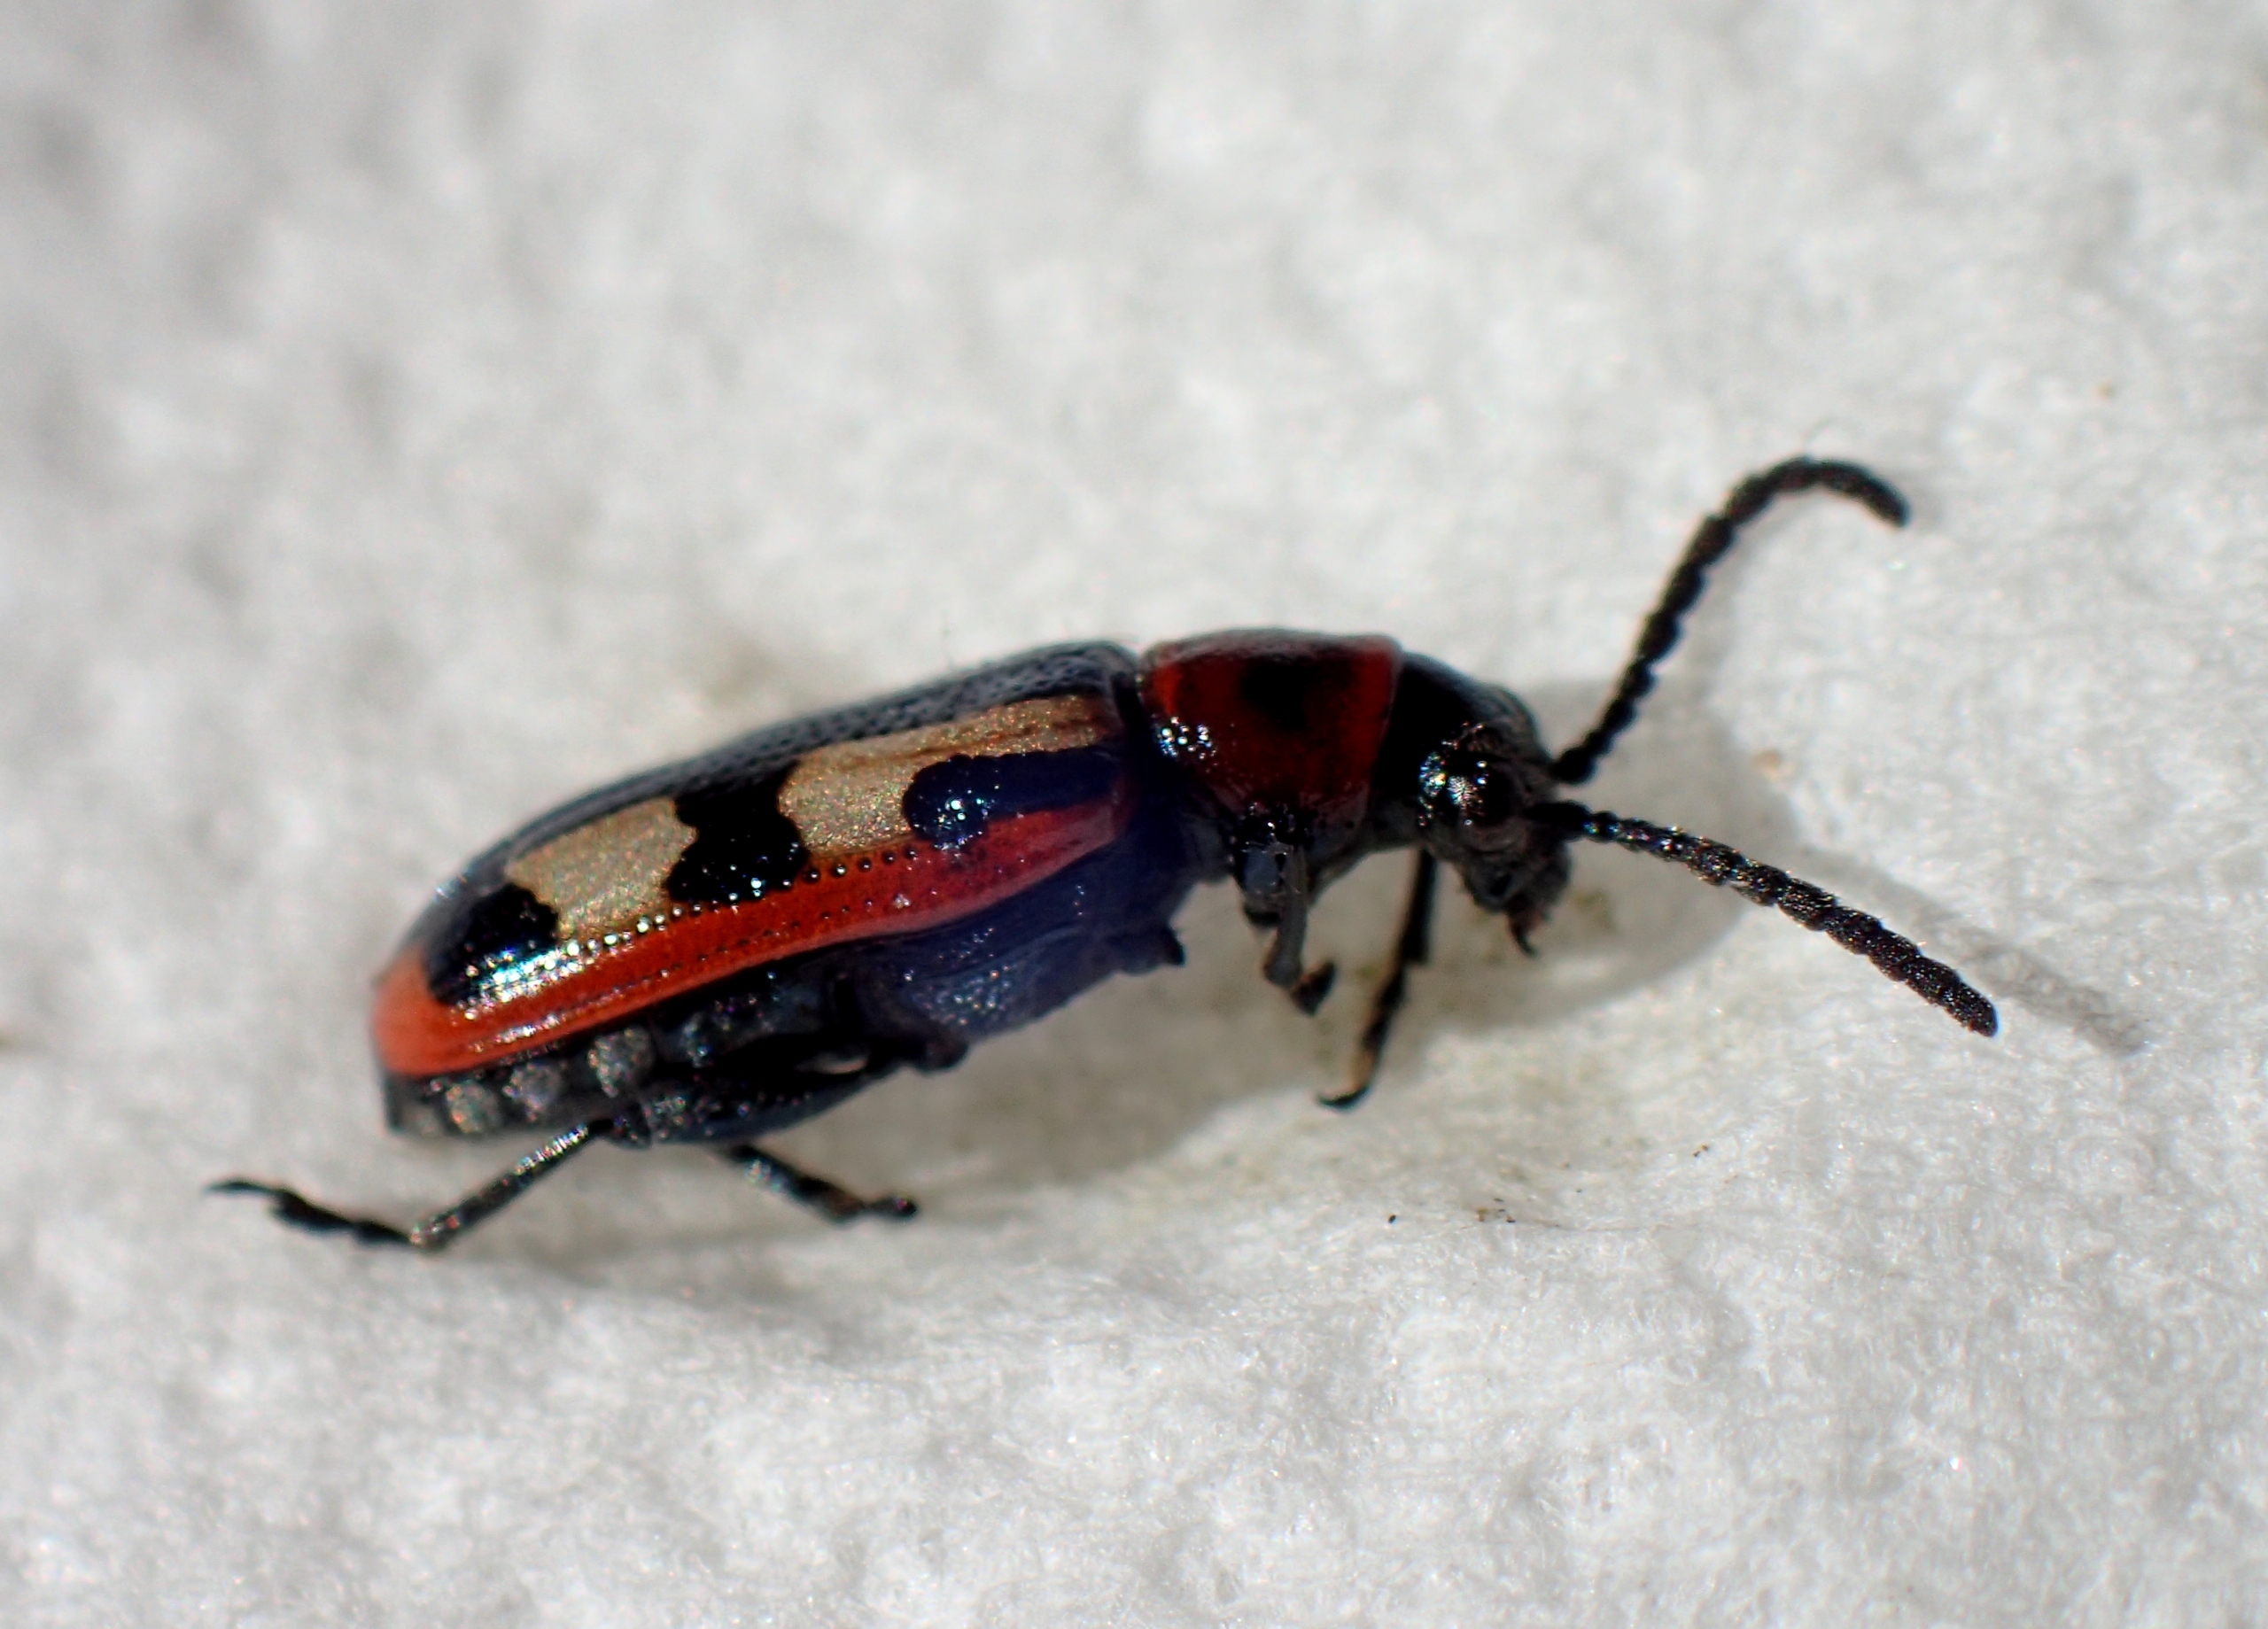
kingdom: Animalia
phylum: Arthropoda
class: Insecta
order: Coleoptera
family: Chrysomelidae
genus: Crioceris
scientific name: Crioceris asparagi
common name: Gulplettet aspargesbille
